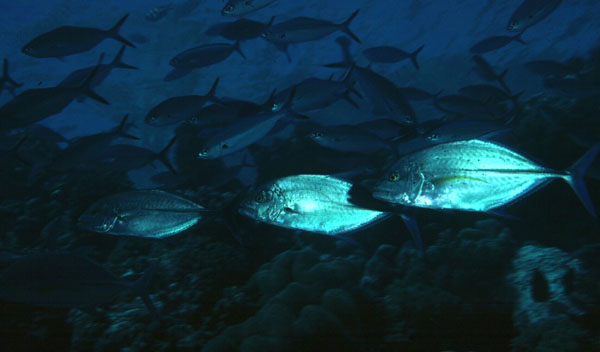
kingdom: Animalia
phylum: Chordata
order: Perciformes
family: Carangidae
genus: Caranx
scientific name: Caranx melampygus
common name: Bluefin trevally
